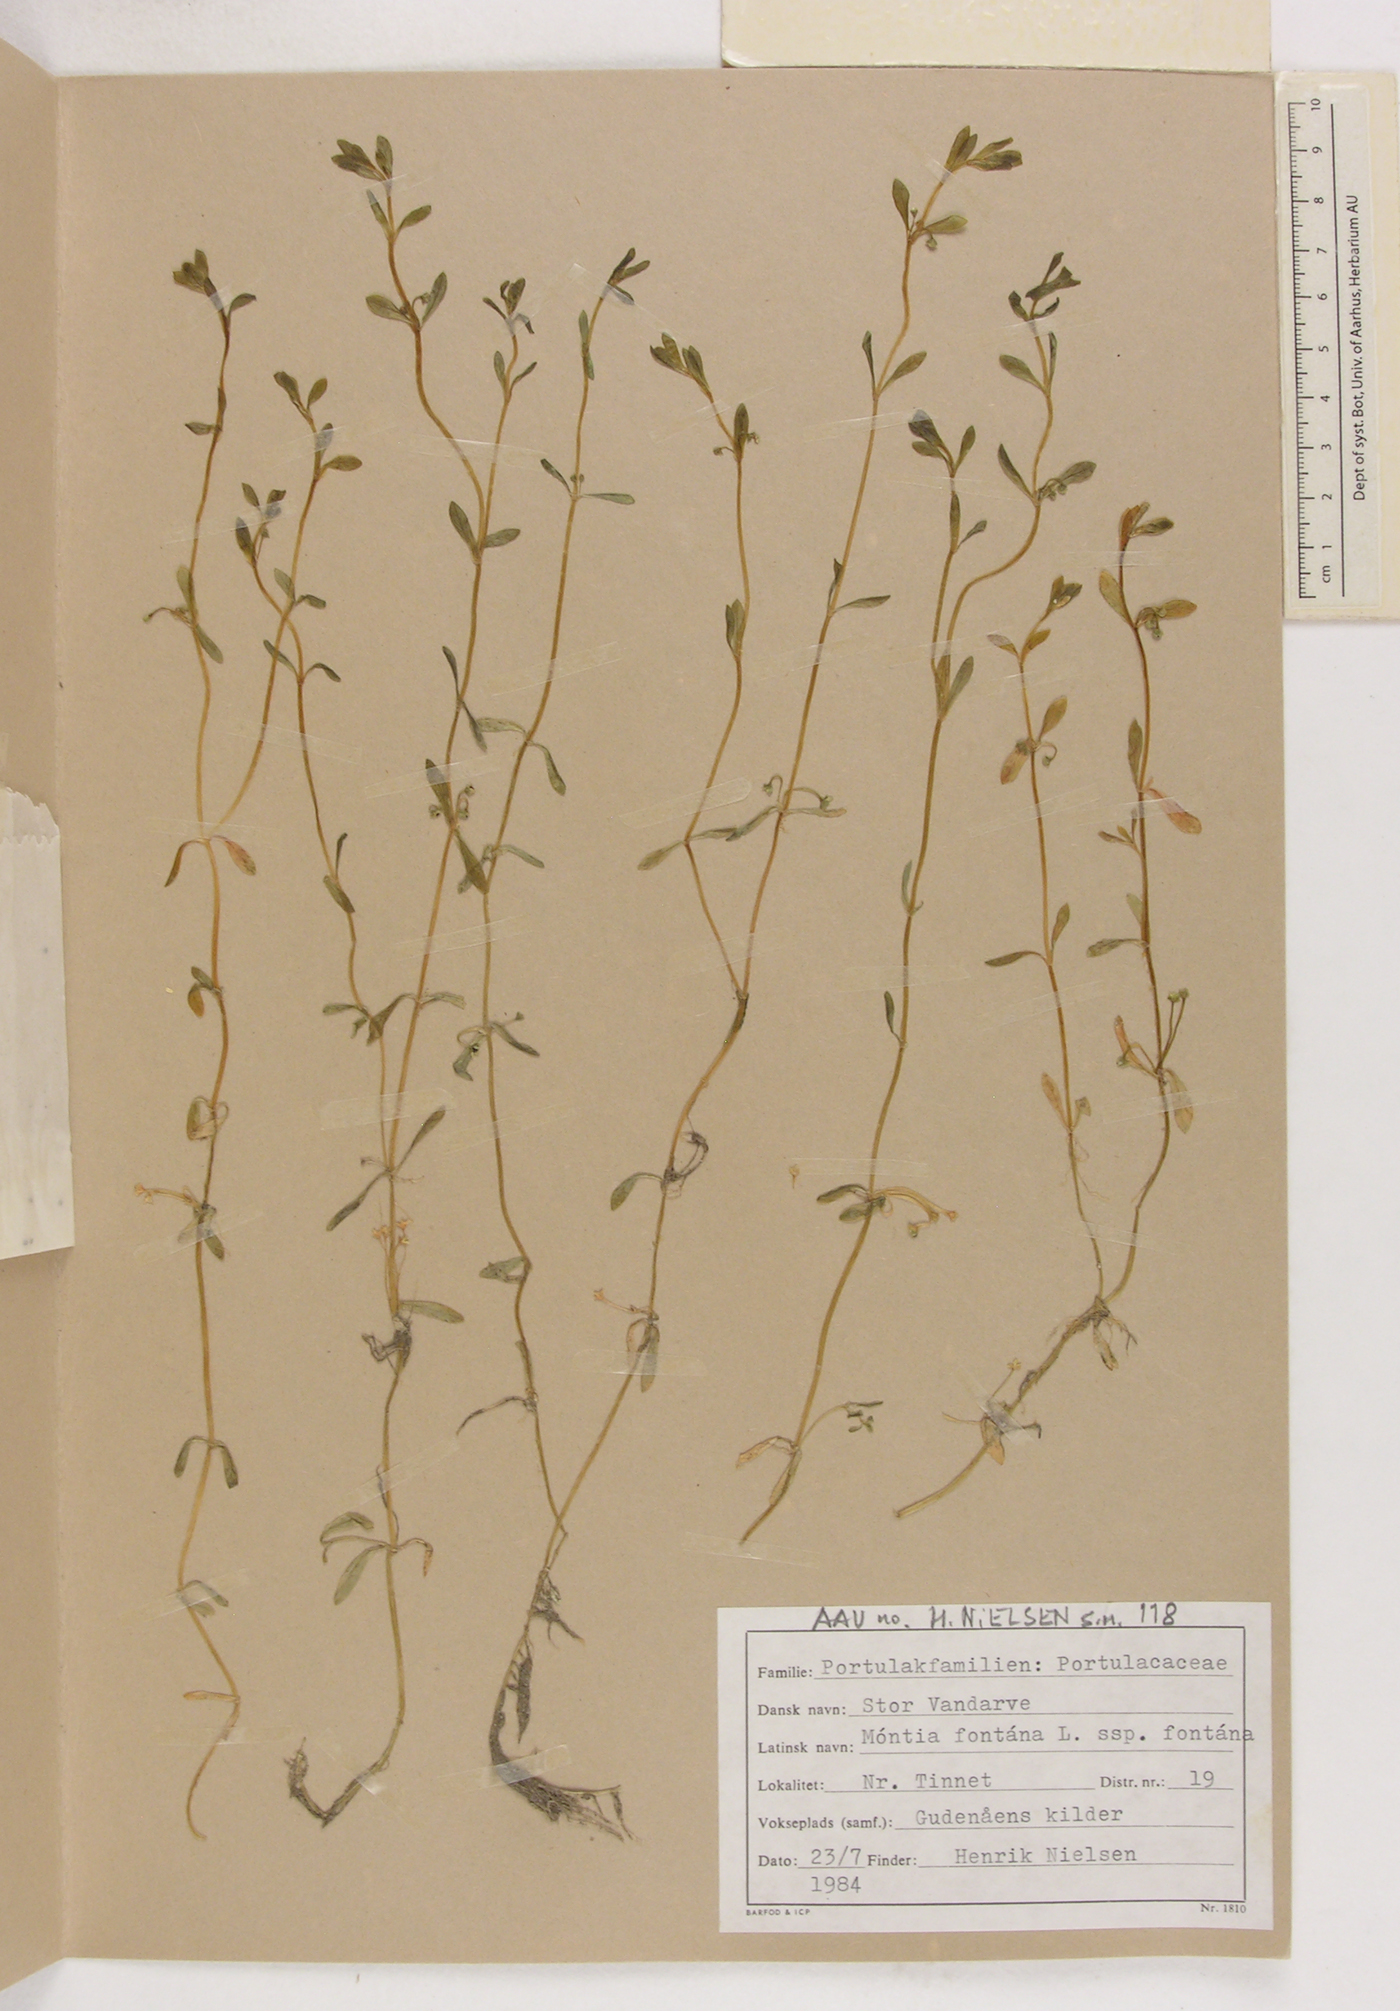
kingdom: Plantae
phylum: Tracheophyta
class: Magnoliopsida
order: Caryophyllales
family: Montiaceae
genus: Montia
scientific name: Montia fontana
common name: Blinks
